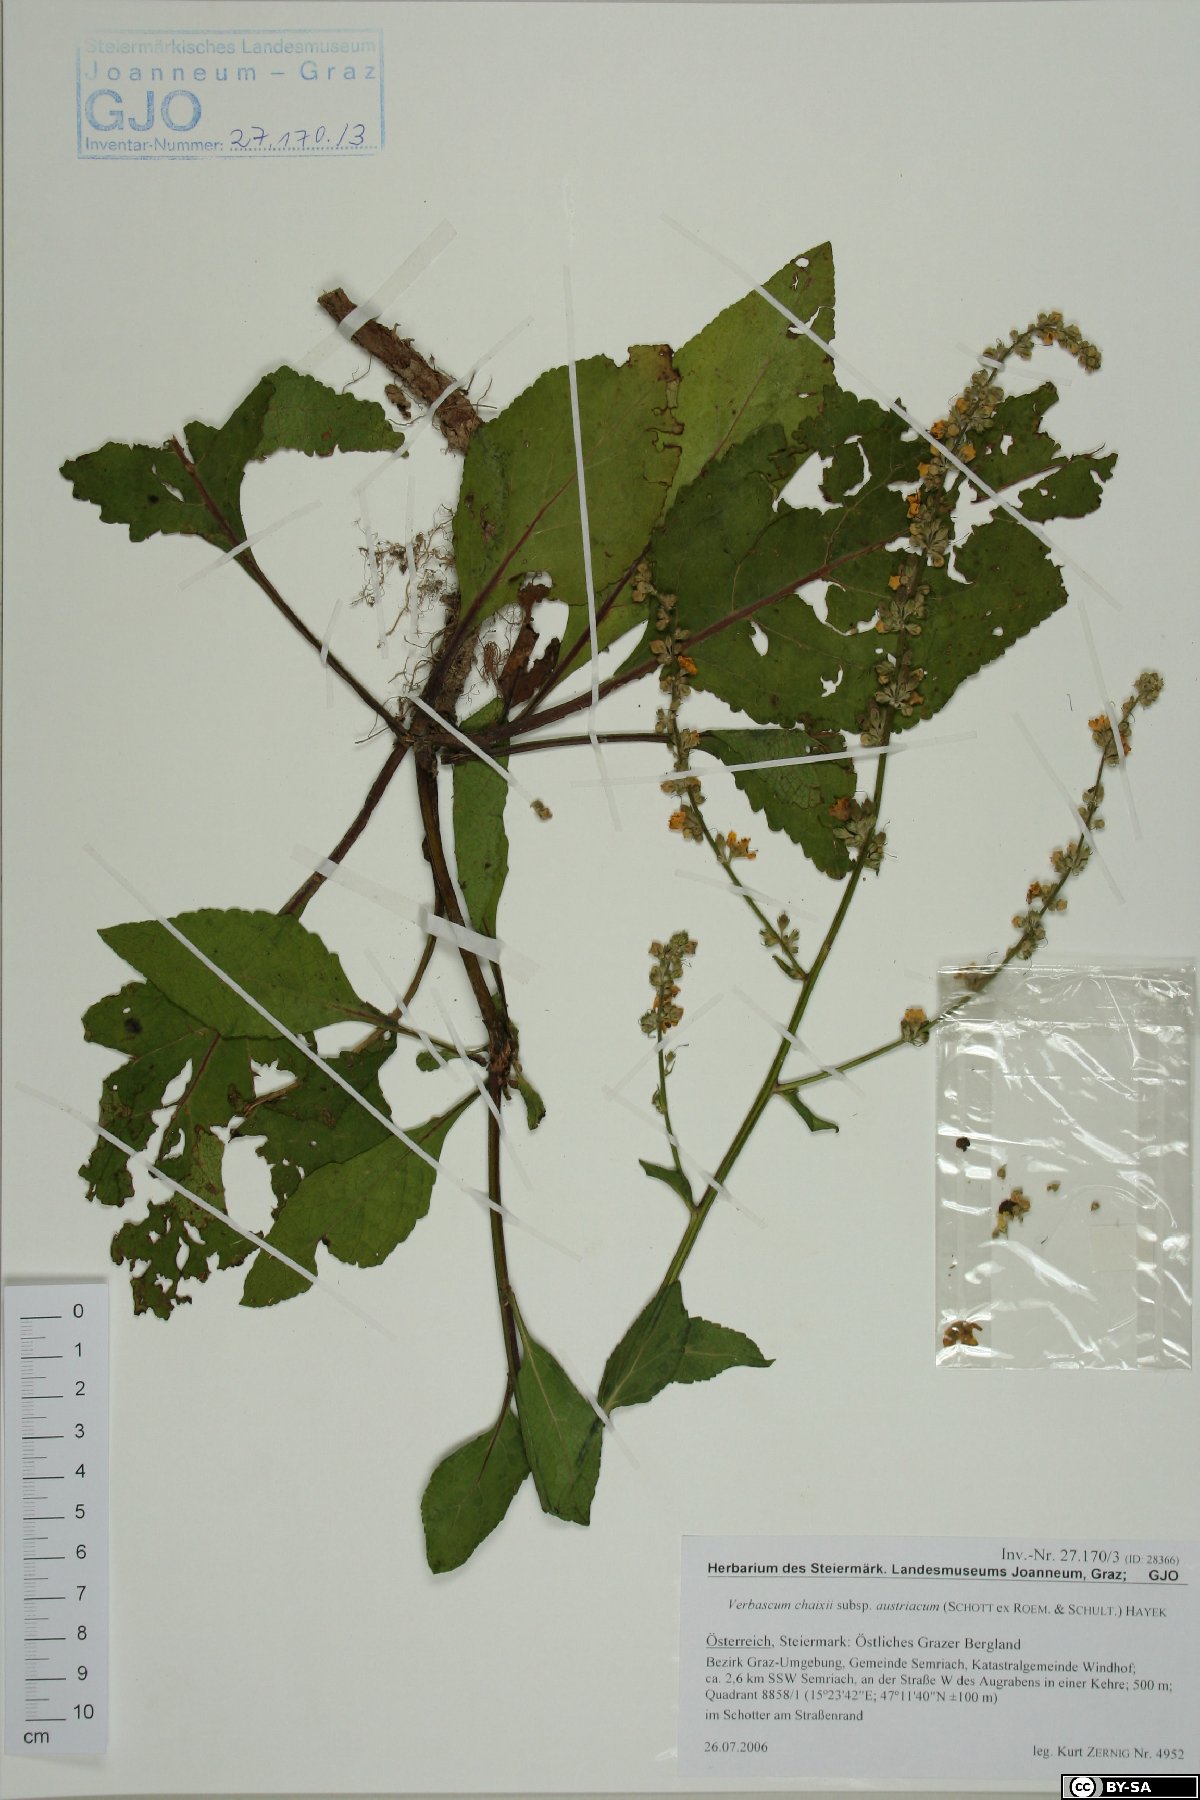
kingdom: Plantae
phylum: Tracheophyta
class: Magnoliopsida
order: Lamiales
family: Scrophulariaceae
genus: Verbascum
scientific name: Verbascum chaixii
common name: Nettle-leaved mullein
